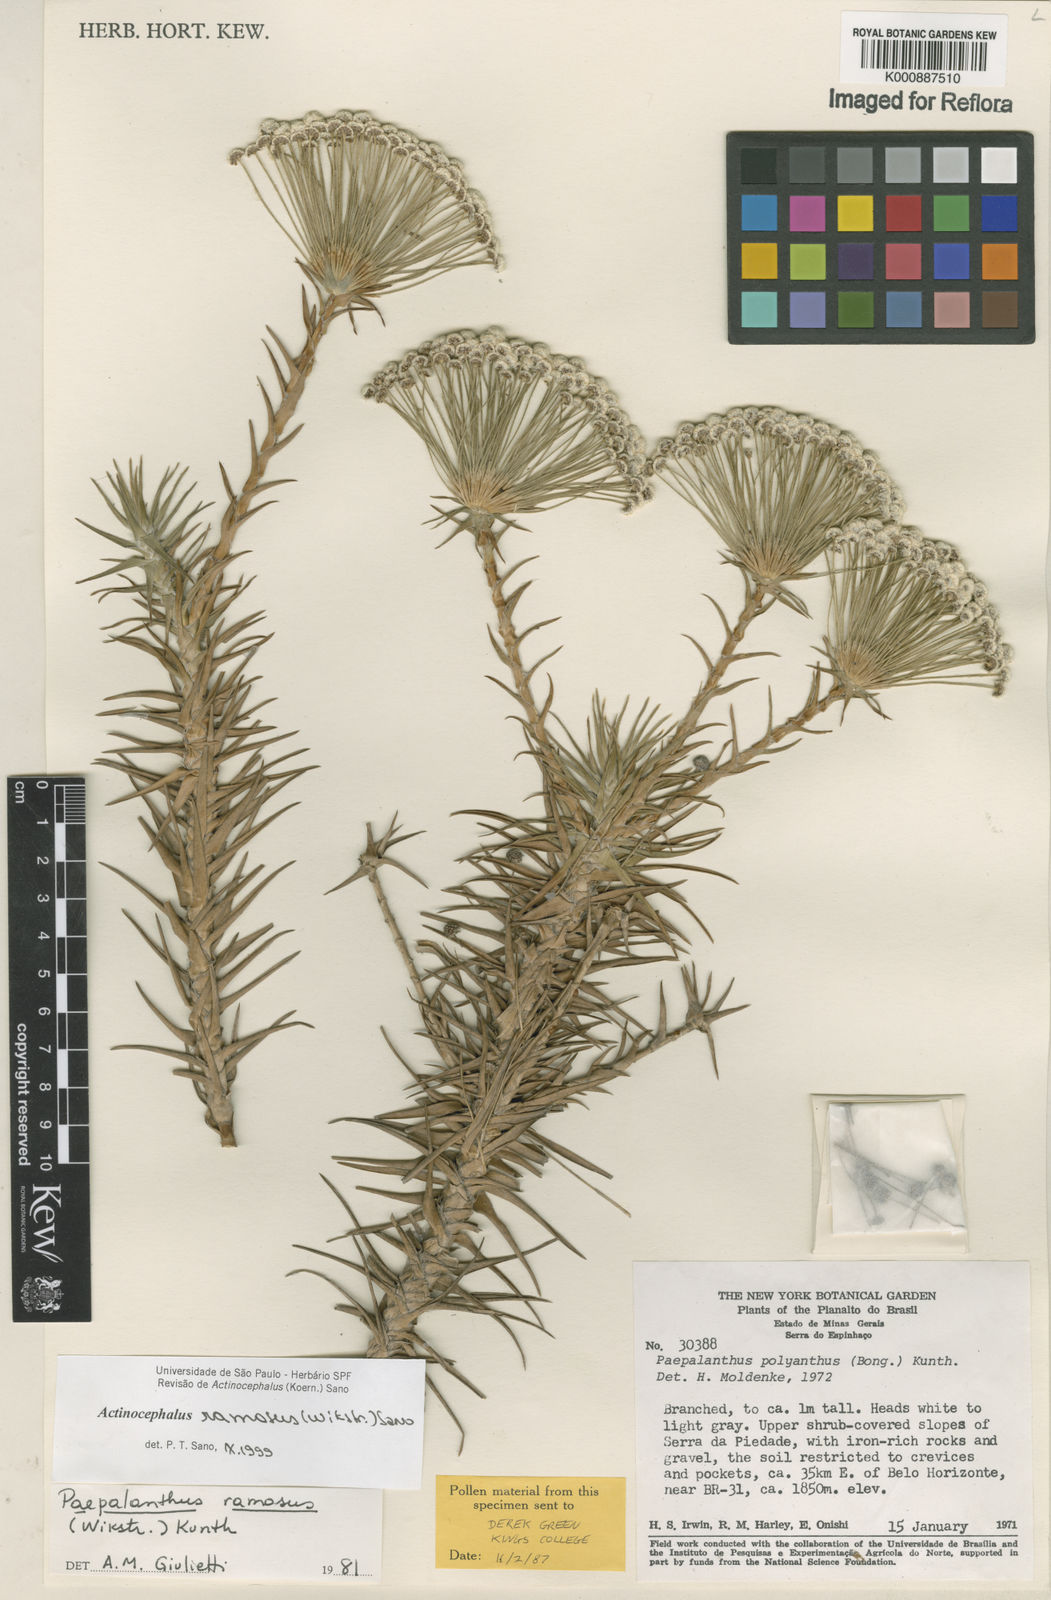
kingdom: Plantae
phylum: Tracheophyta
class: Liliopsida
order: Poales
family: Eriocaulaceae
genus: Paepalanthus
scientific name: Paepalanthus ramosus
